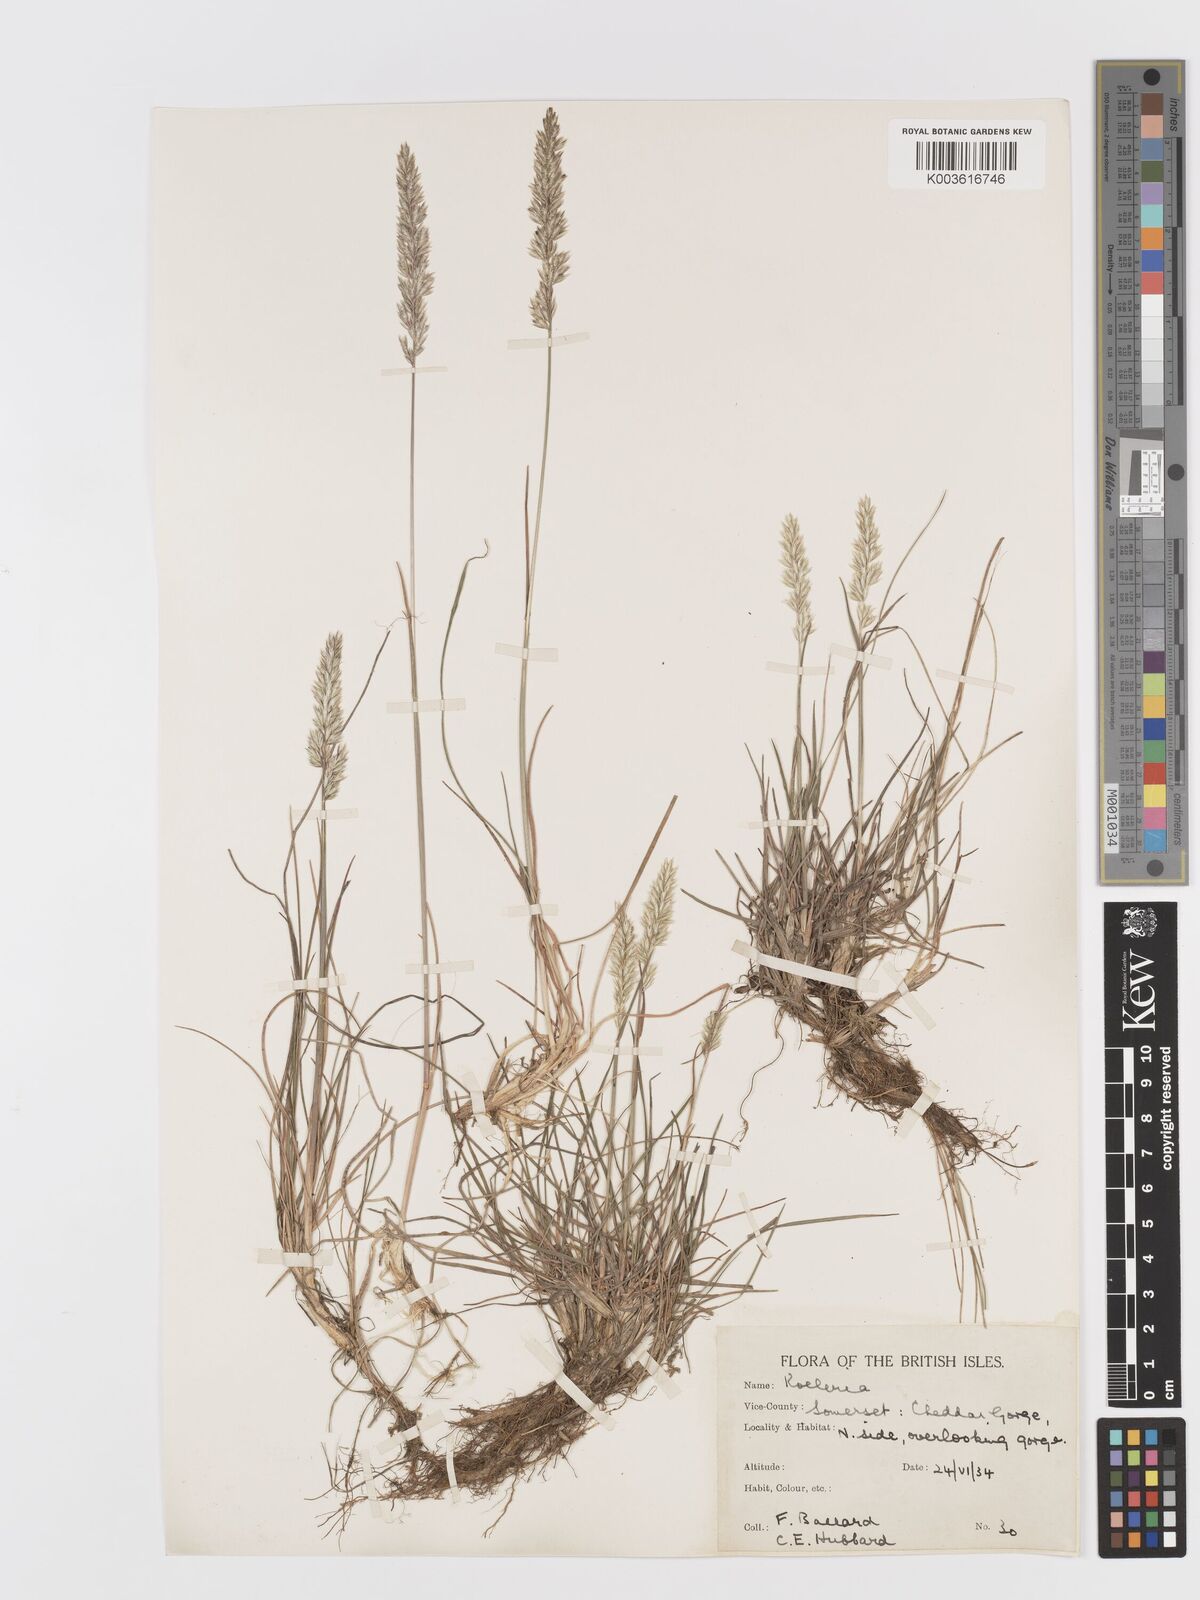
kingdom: Plantae
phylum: Tracheophyta
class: Liliopsida
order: Poales
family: Poaceae
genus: Koeleria
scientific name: Koeleria
